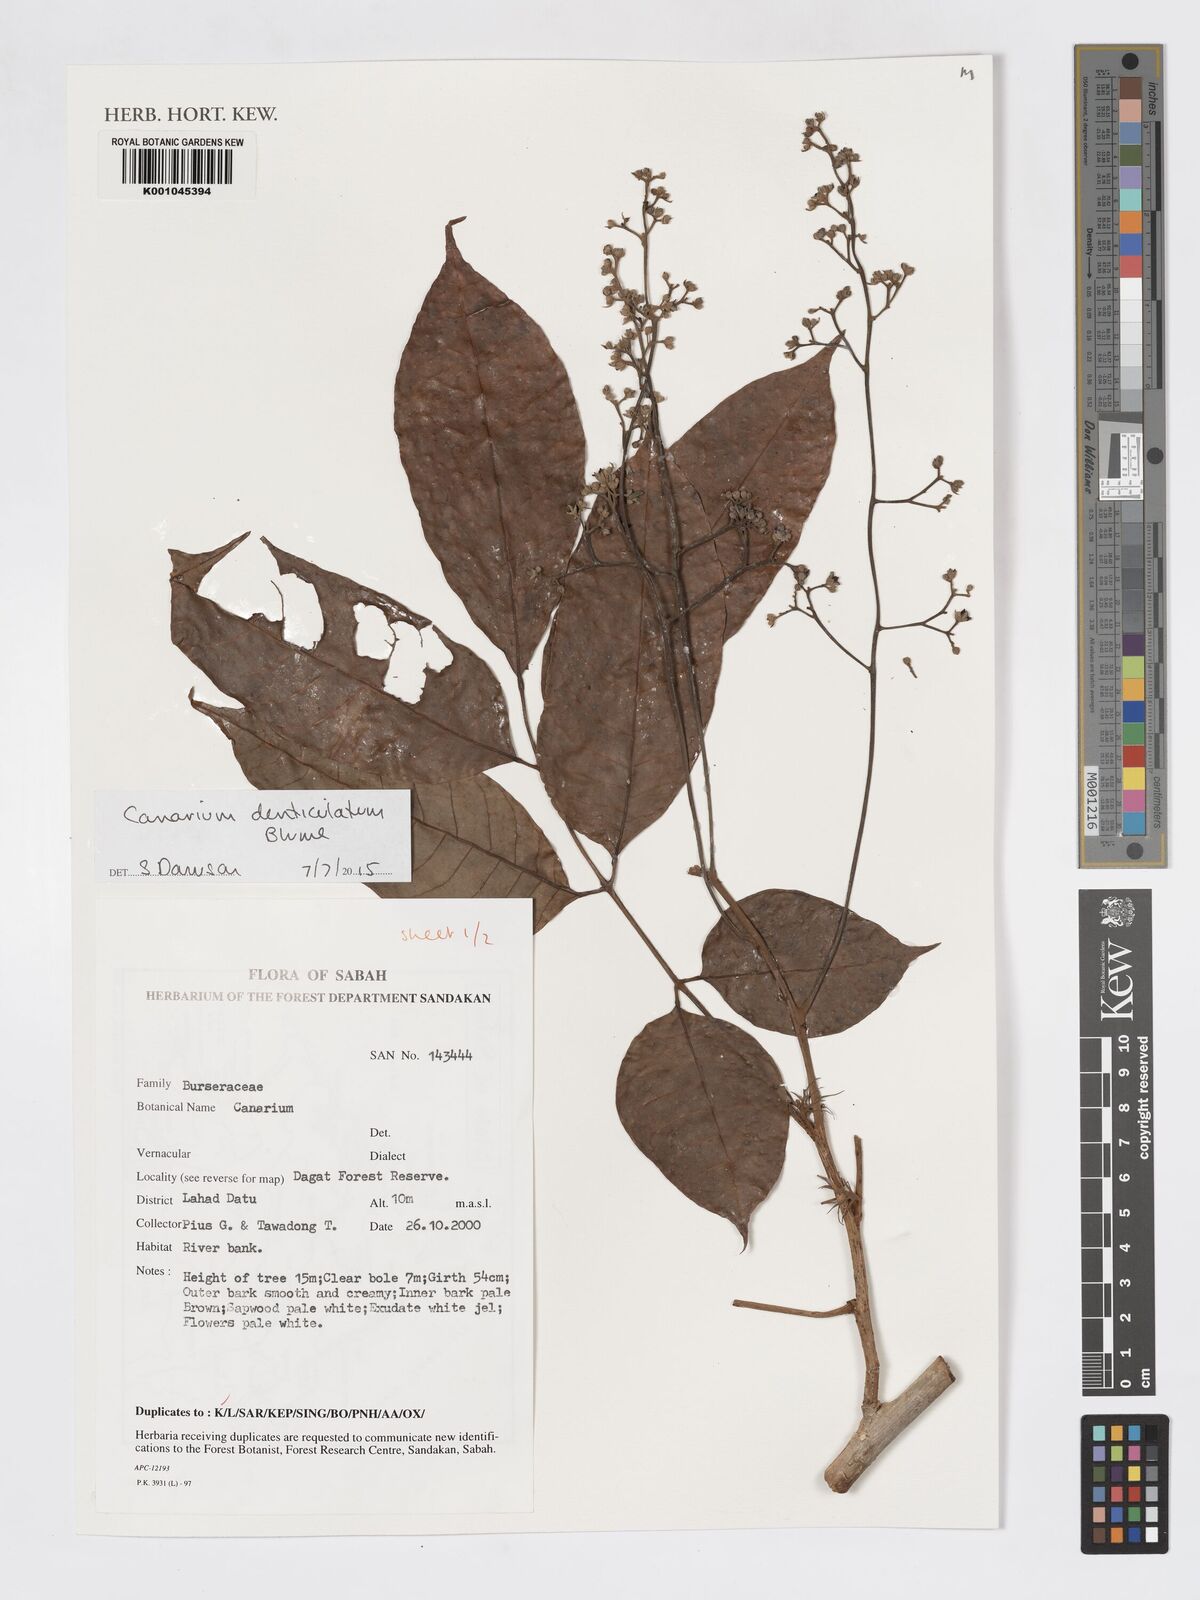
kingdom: Plantae
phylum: Tracheophyta
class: Magnoliopsida
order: Sapindales
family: Burseraceae
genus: Canarium
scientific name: Canarium denticulatum
